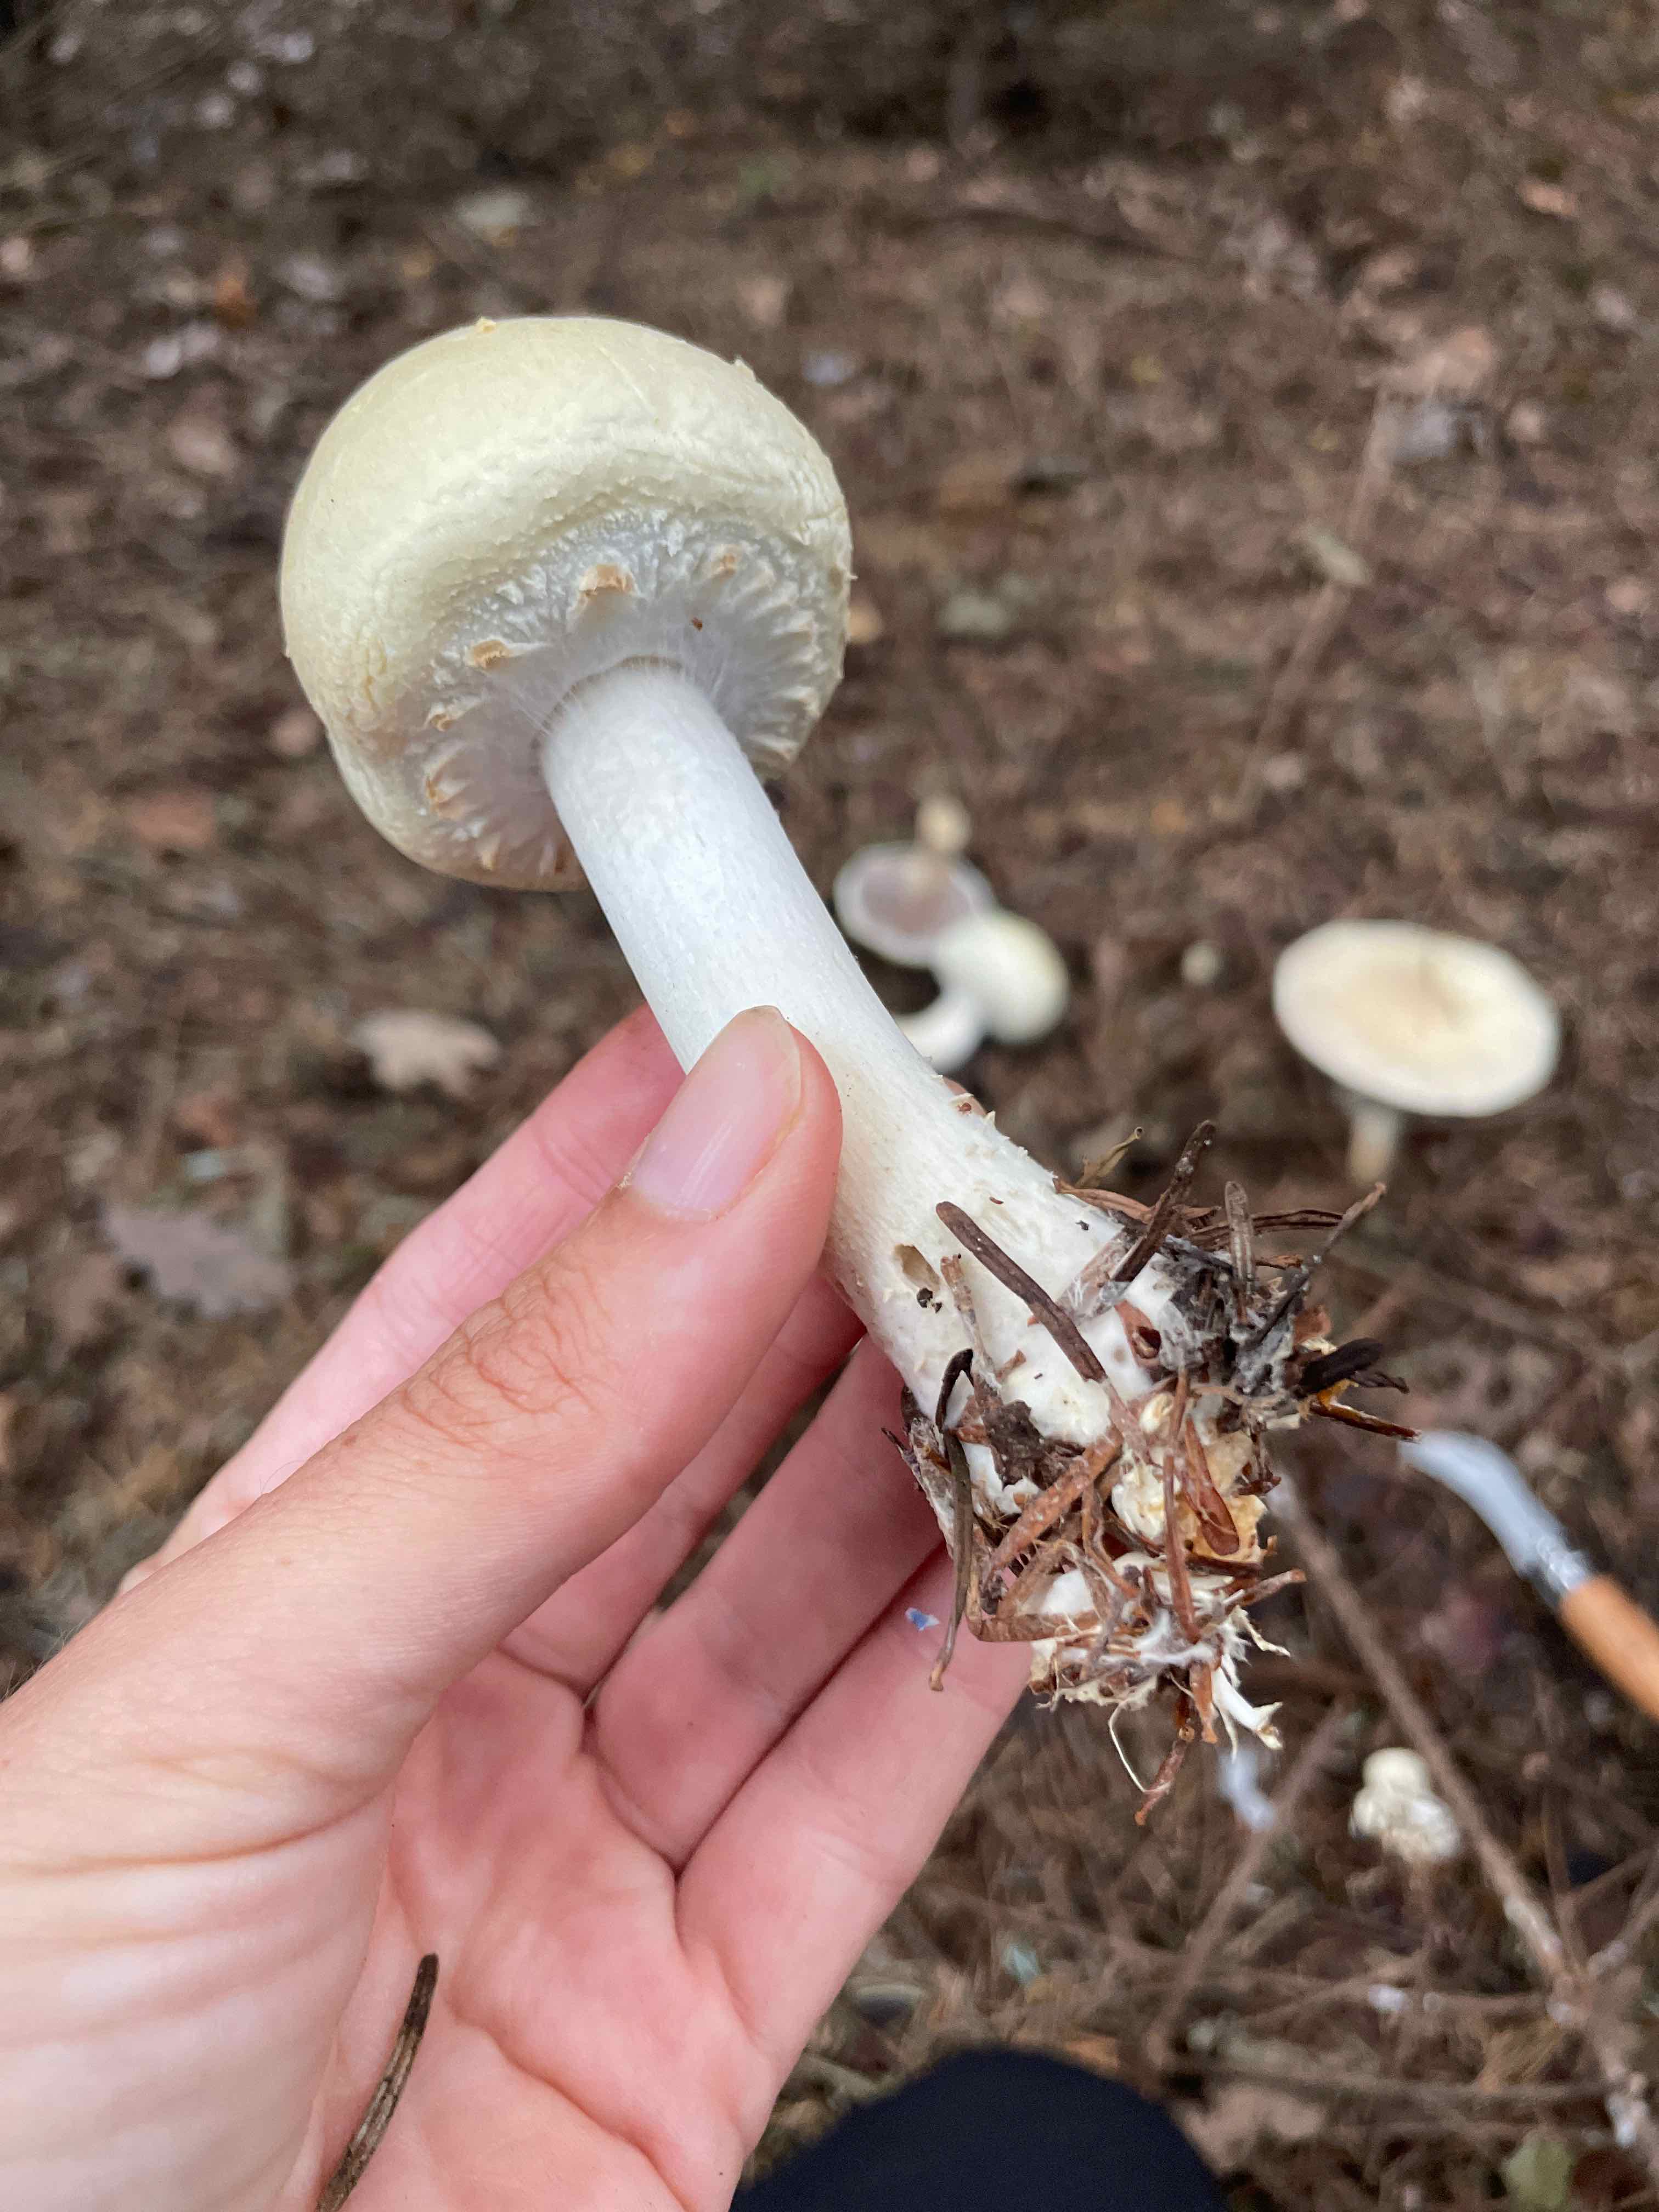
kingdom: Fungi
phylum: Basidiomycota
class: Agaricomycetes
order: Agaricales
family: Agaricaceae
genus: Agaricus
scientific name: Agaricus sylvicola
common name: gulhvid champignon
